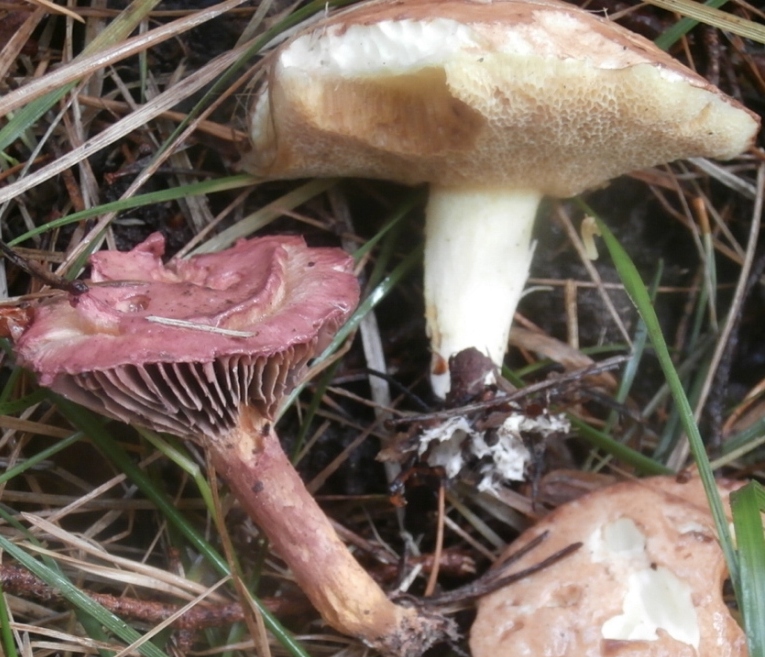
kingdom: Fungi
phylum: Basidiomycota
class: Agaricomycetes
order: Boletales
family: Gomphidiaceae
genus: Gomphidius
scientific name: Gomphidius roseus
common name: rosenrød slimslør
